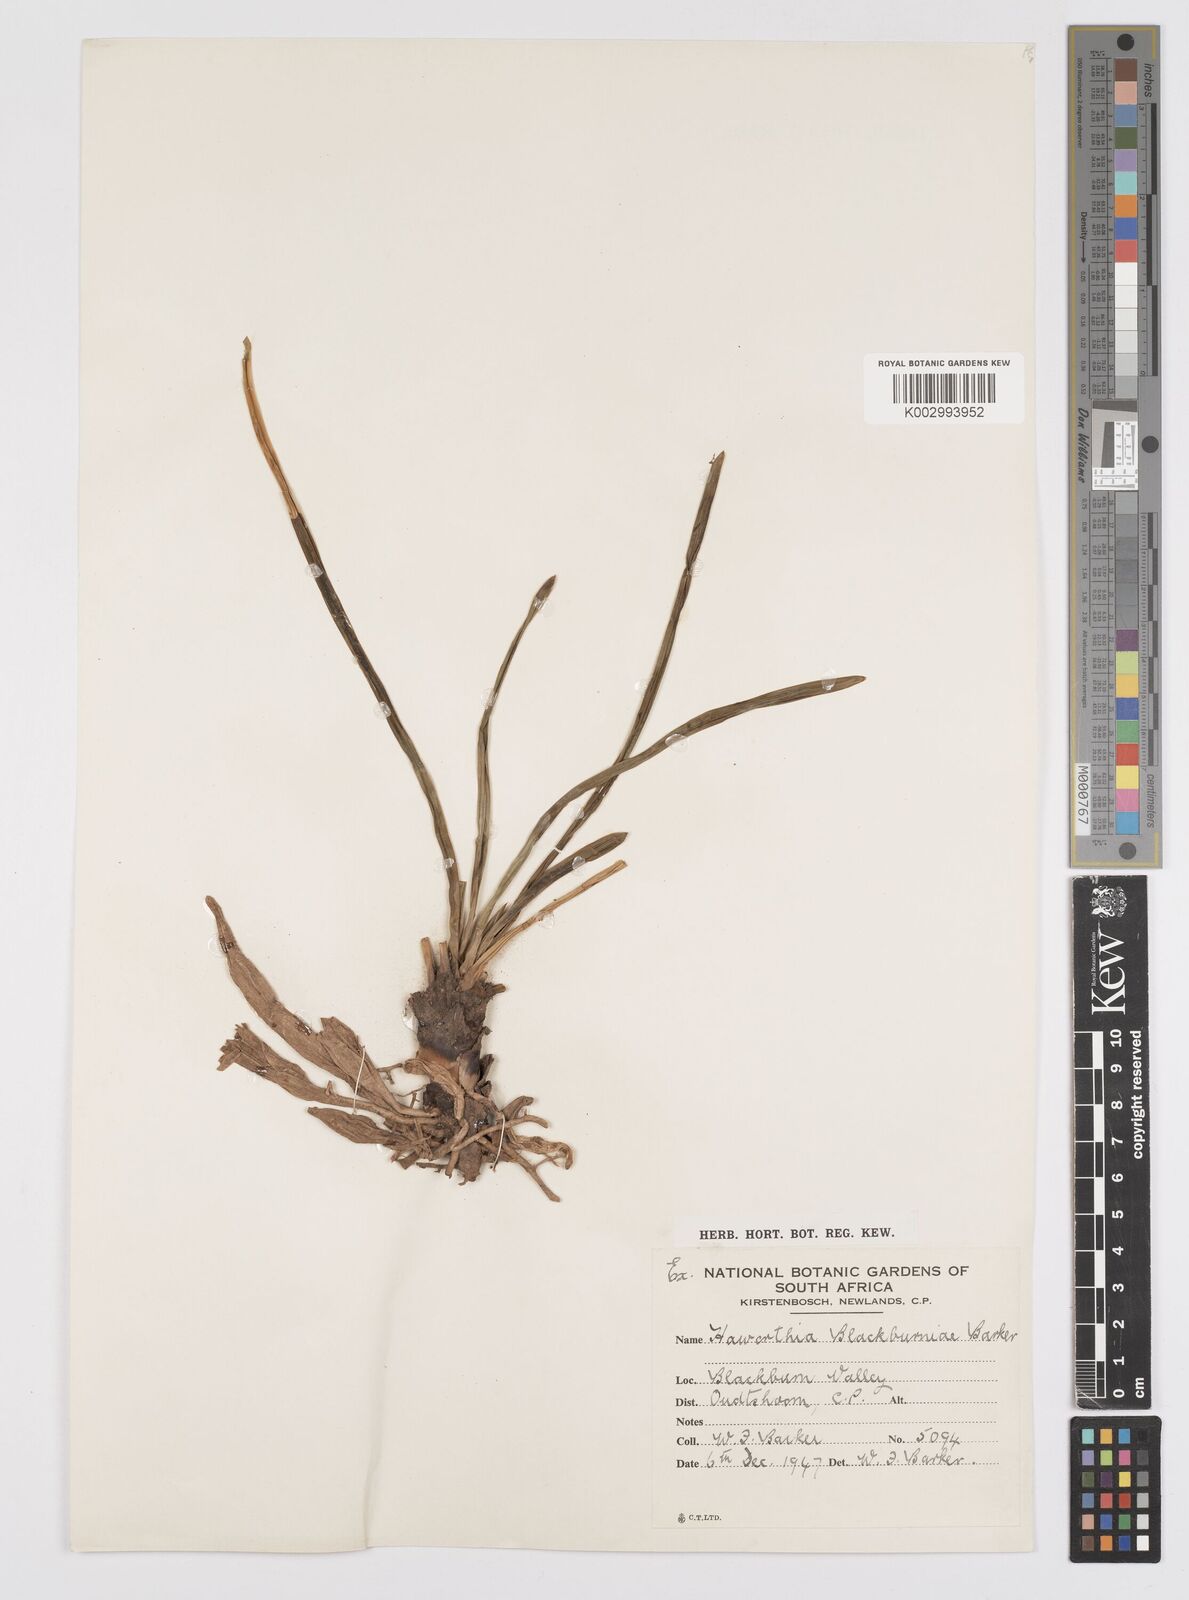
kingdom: Plantae
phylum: Tracheophyta
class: Liliopsida
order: Asparagales
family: Asphodelaceae
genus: Haworthia
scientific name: Haworthia blackburniae
